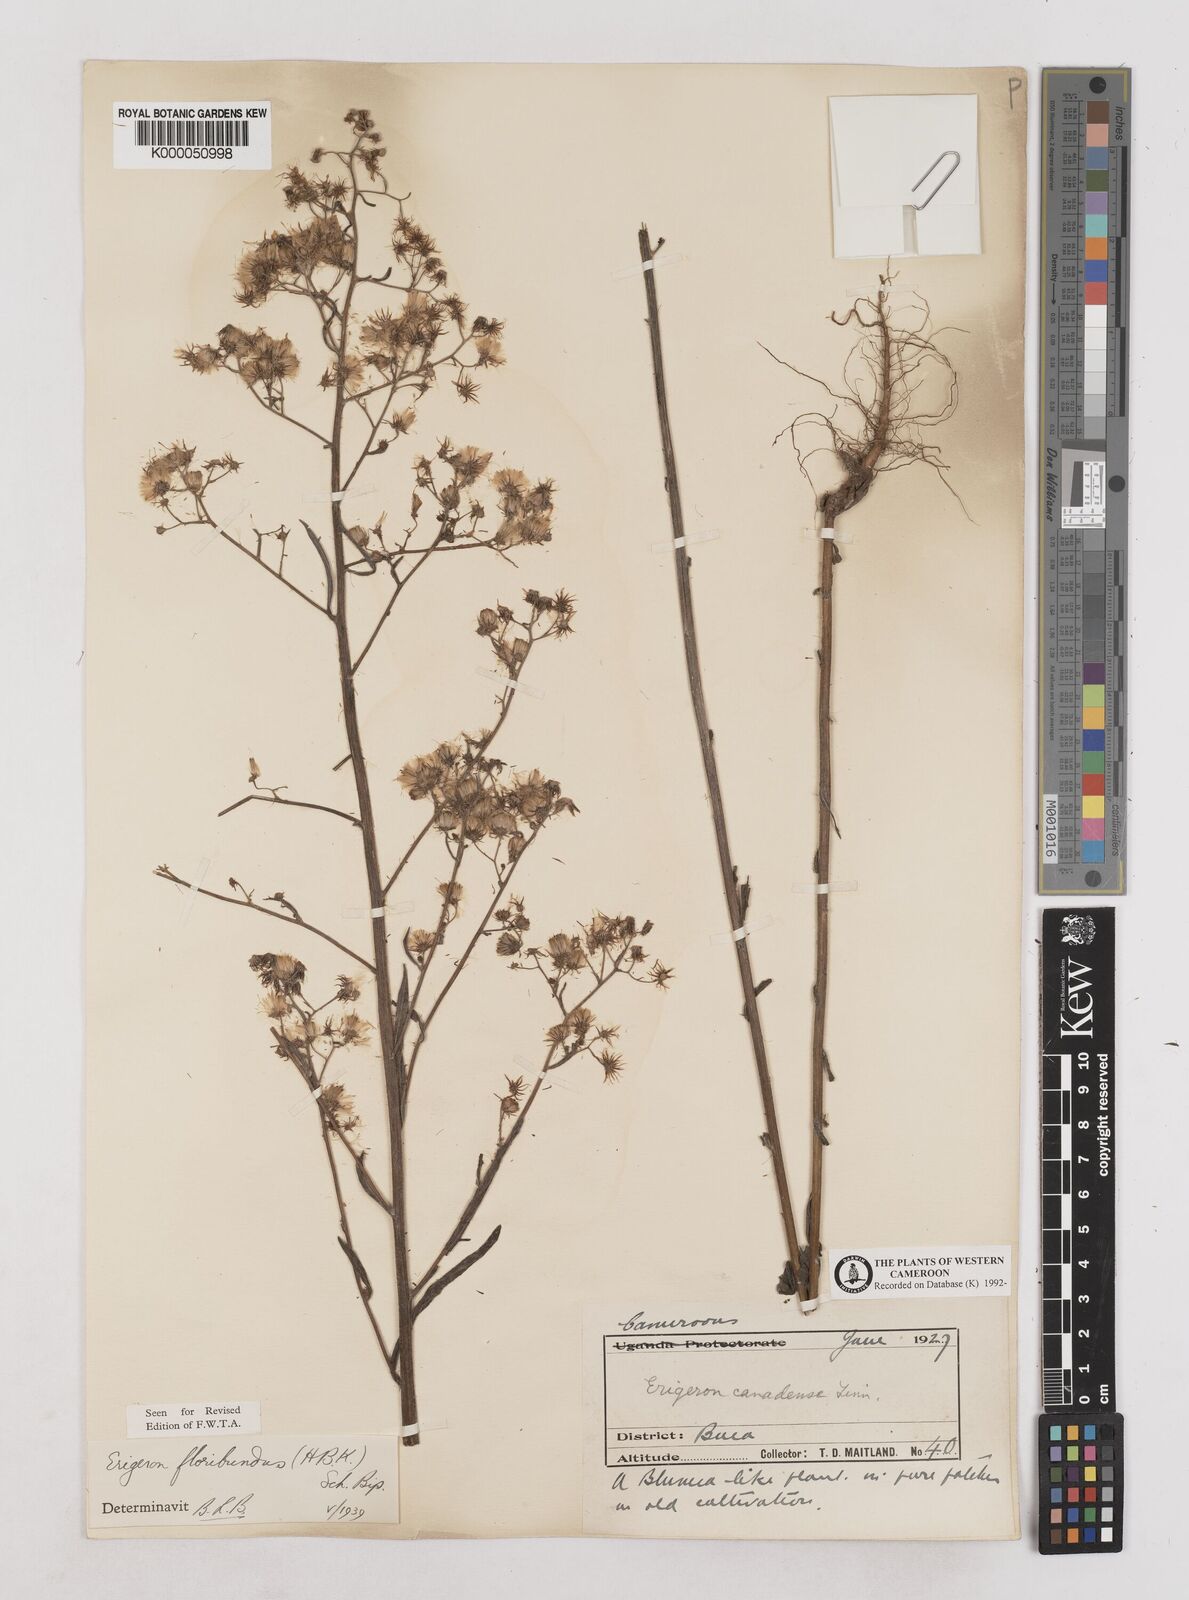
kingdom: Plantae
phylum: Tracheophyta
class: Magnoliopsida
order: Asterales
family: Asteraceae
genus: Erigeron
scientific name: Erigeron sumatrensis
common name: Daisy
